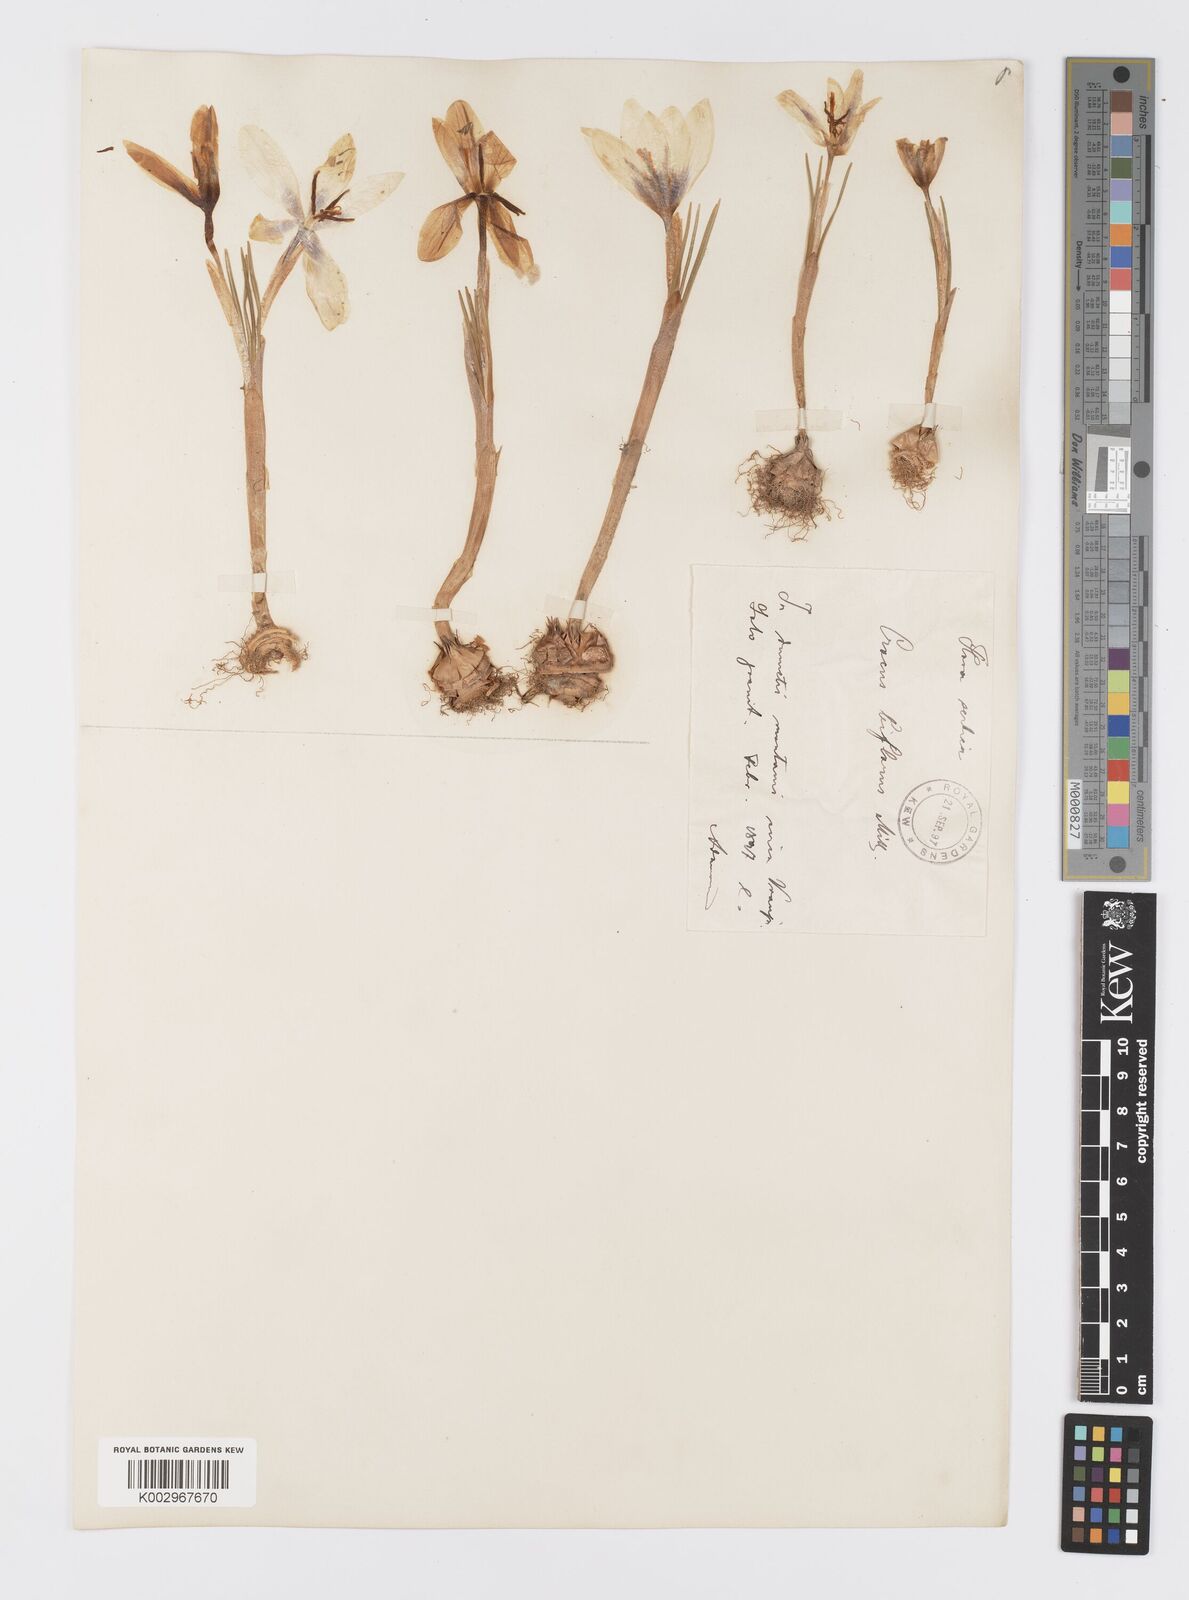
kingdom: Plantae
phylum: Tracheophyta
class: Liliopsida
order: Asparagales
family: Iridaceae
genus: Crocus
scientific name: Crocus alexandri
